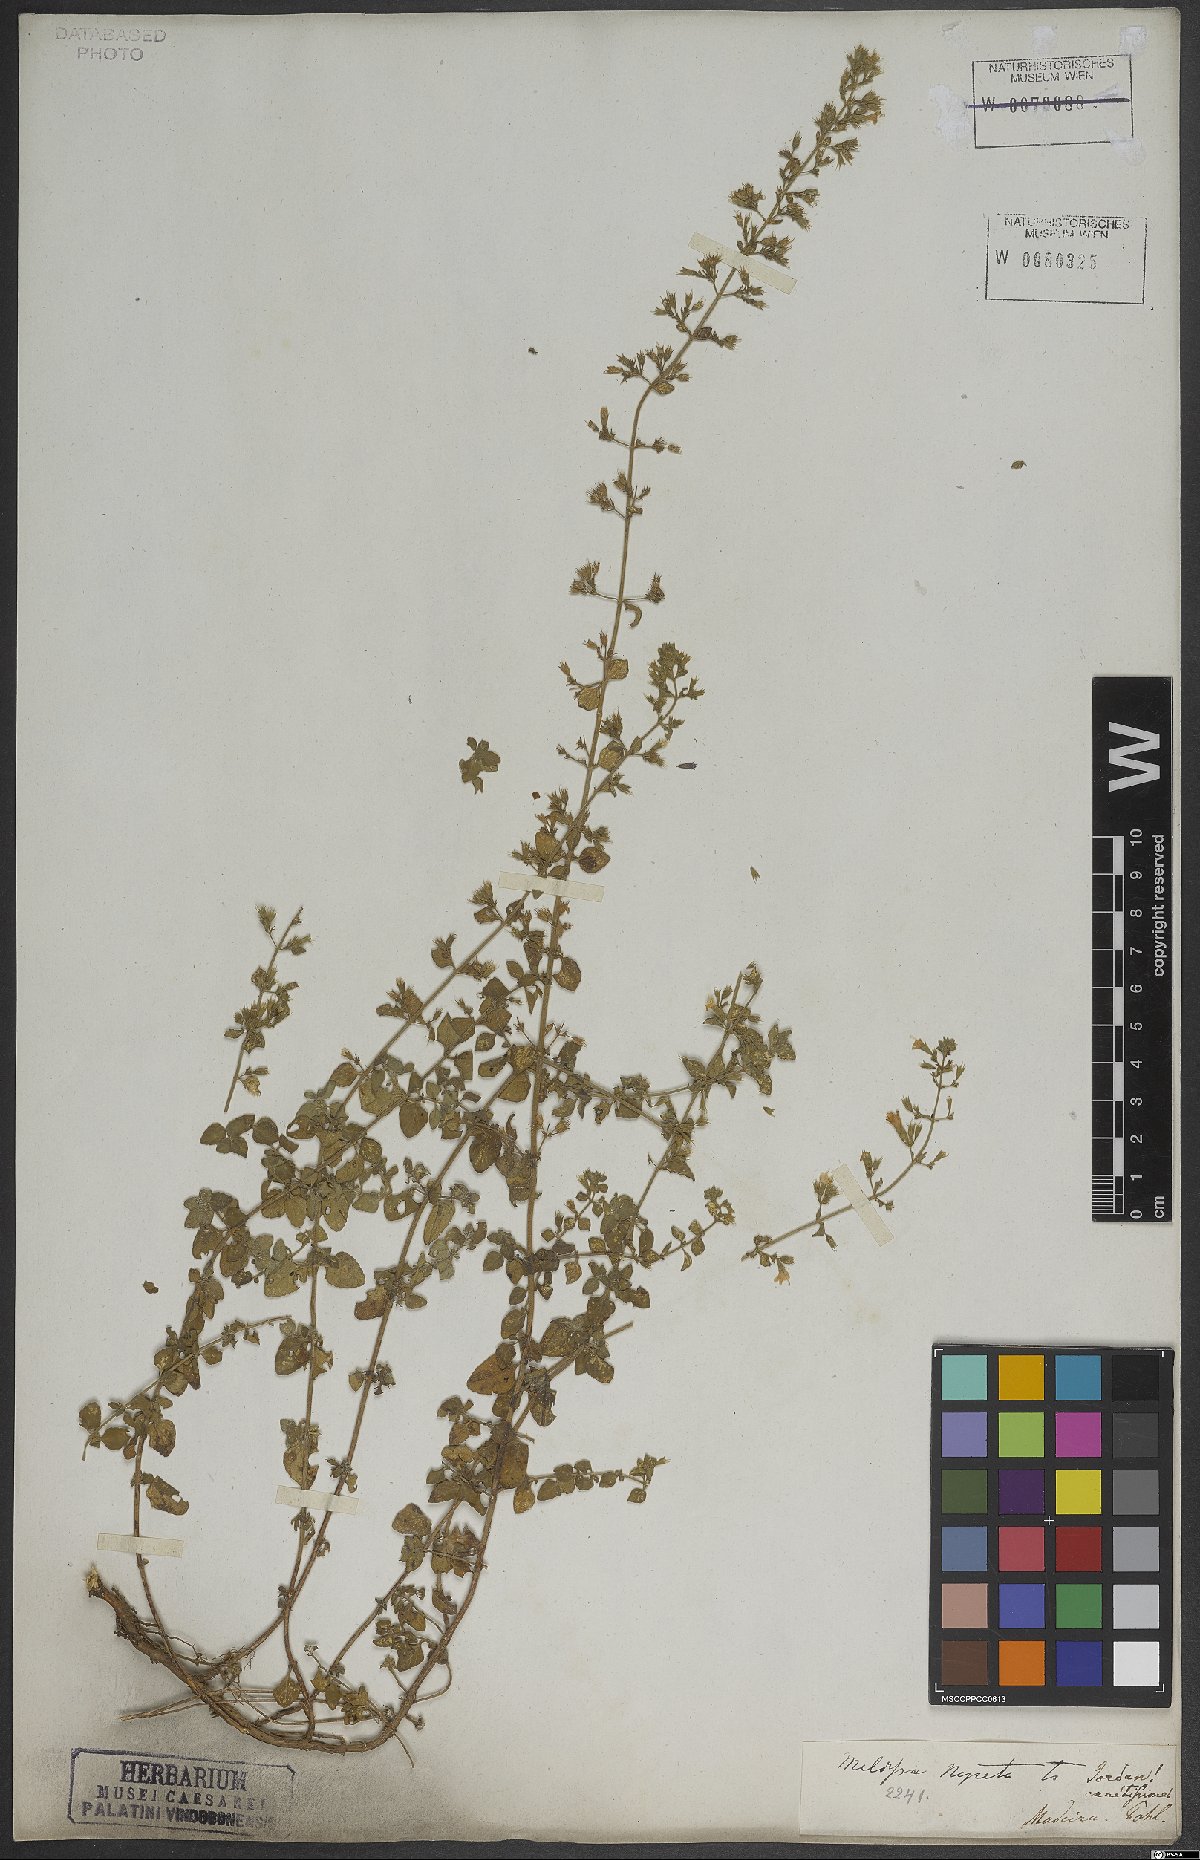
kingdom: Plantae
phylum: Tracheophyta
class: Magnoliopsida
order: Lamiales
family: Lamiaceae
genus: Clinopodium
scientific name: Clinopodium nepeta
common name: Lesser calamint
